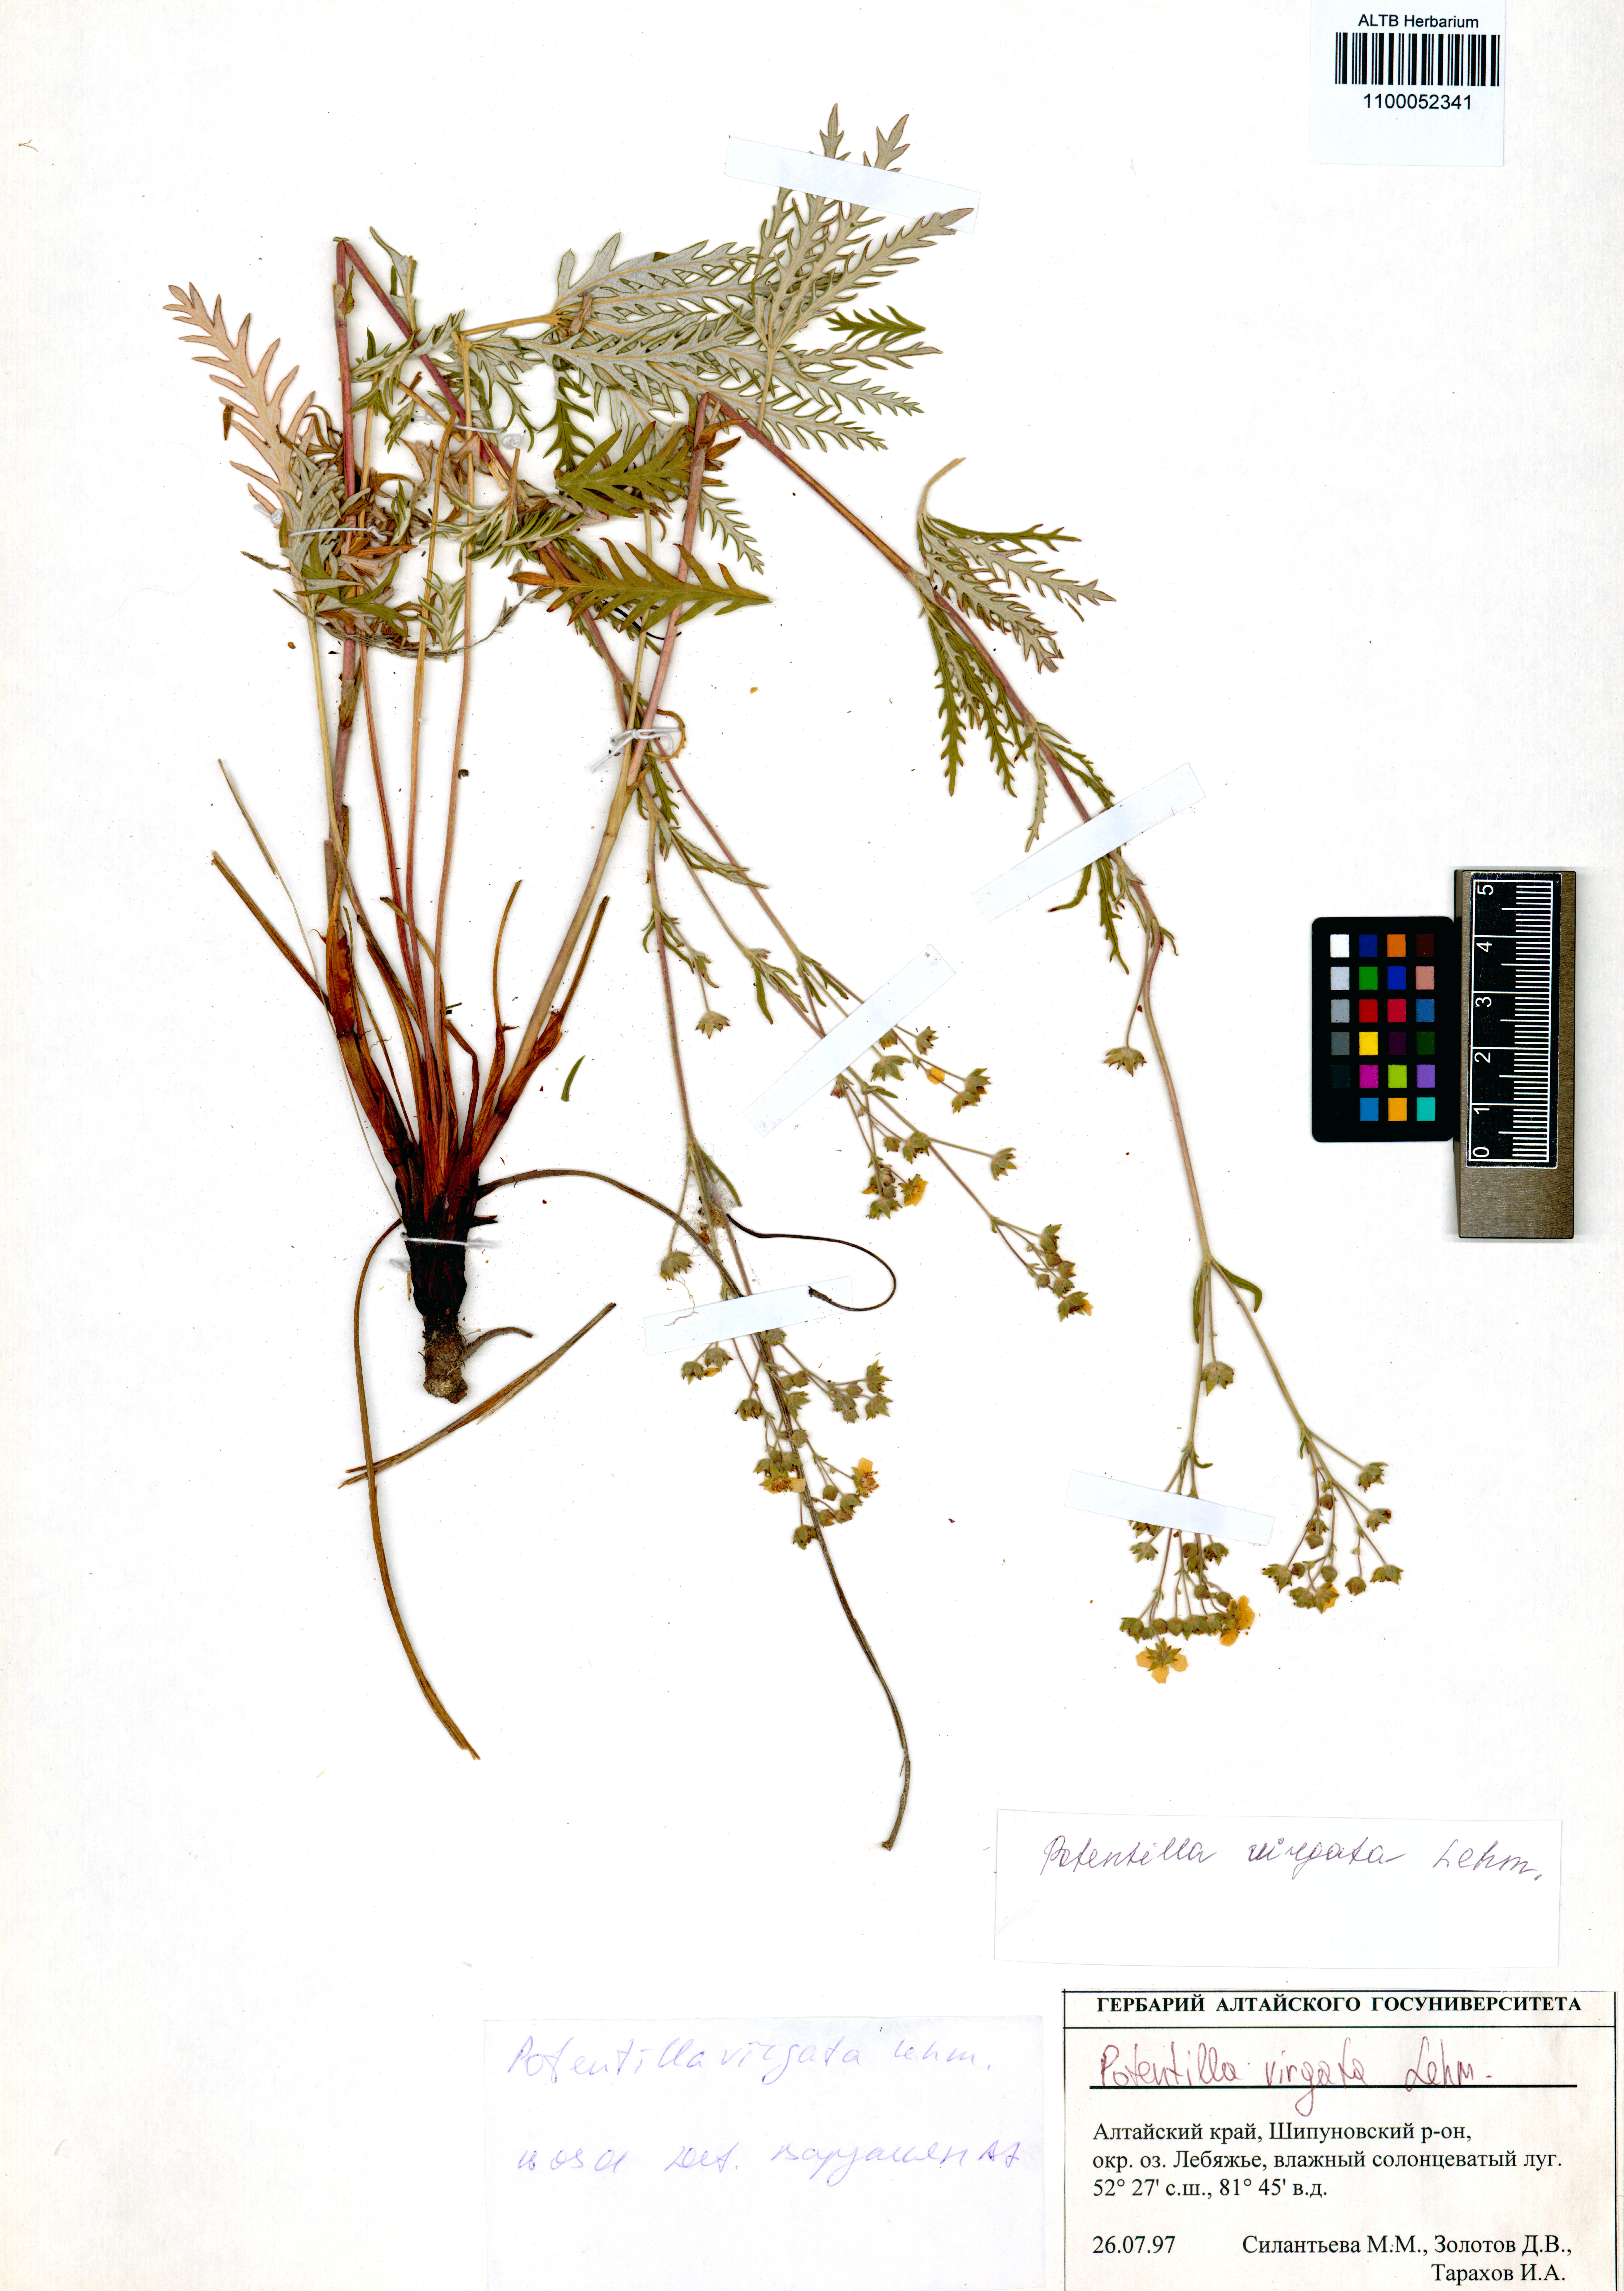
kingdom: Plantae
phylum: Tracheophyta
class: Magnoliopsida
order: Rosales
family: Rosaceae
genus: Potentilla
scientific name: Potentilla virgata
